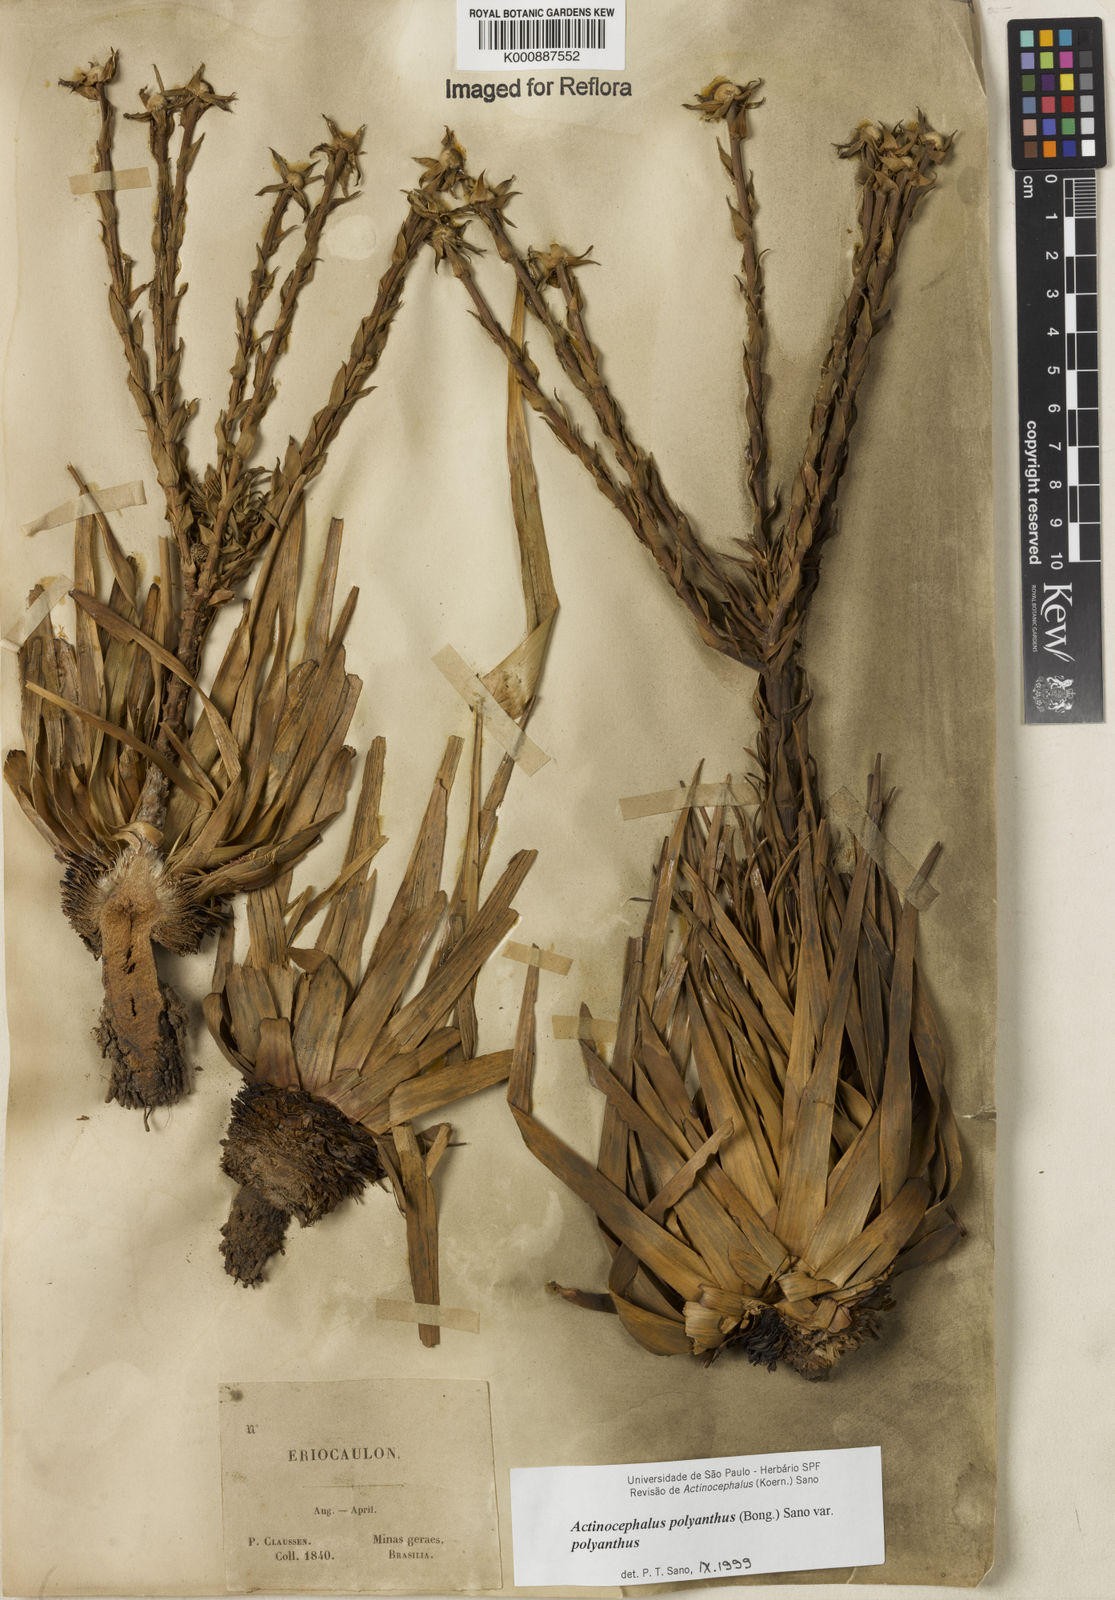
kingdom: Plantae
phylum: Tracheophyta
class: Liliopsida
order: Poales
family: Eriocaulaceae
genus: Paepalanthus
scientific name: Paepalanthus polyanthus
